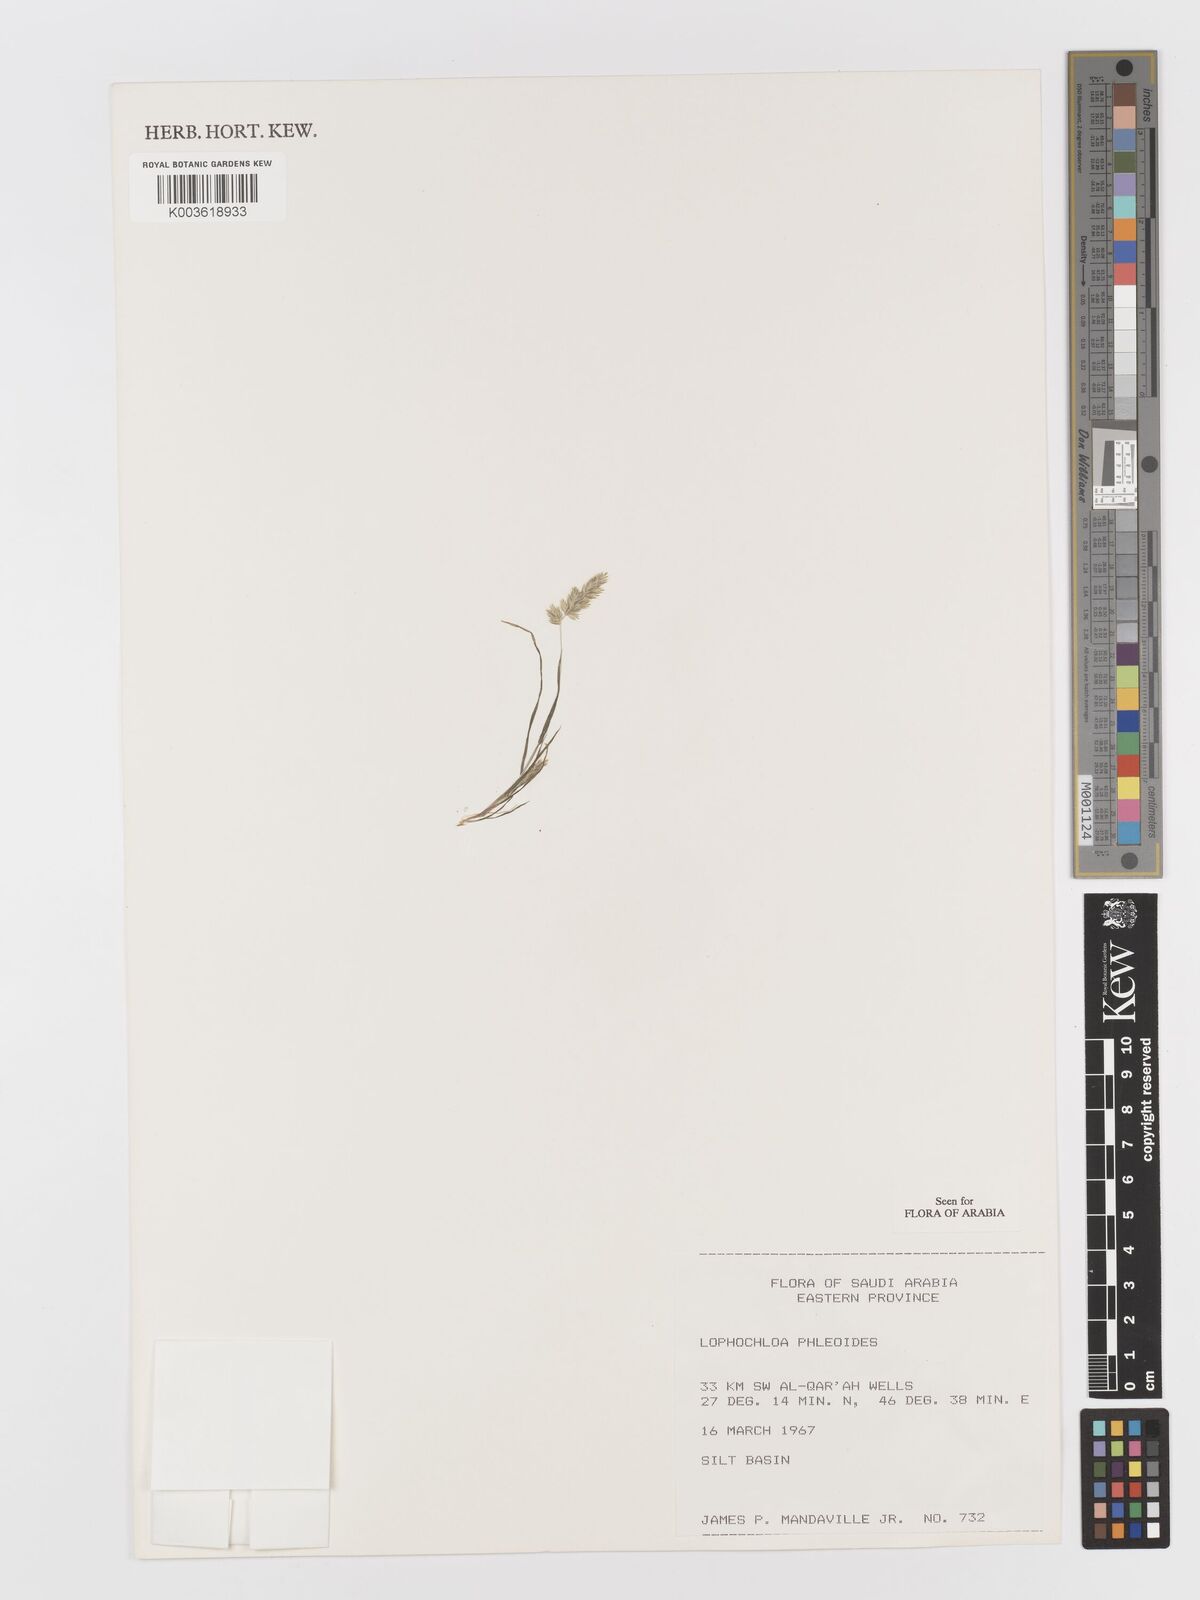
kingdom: Plantae
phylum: Tracheophyta
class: Liliopsida
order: Poales
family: Poaceae
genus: Rostraria
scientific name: Rostraria cristata
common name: Mediterranean hair-grass
